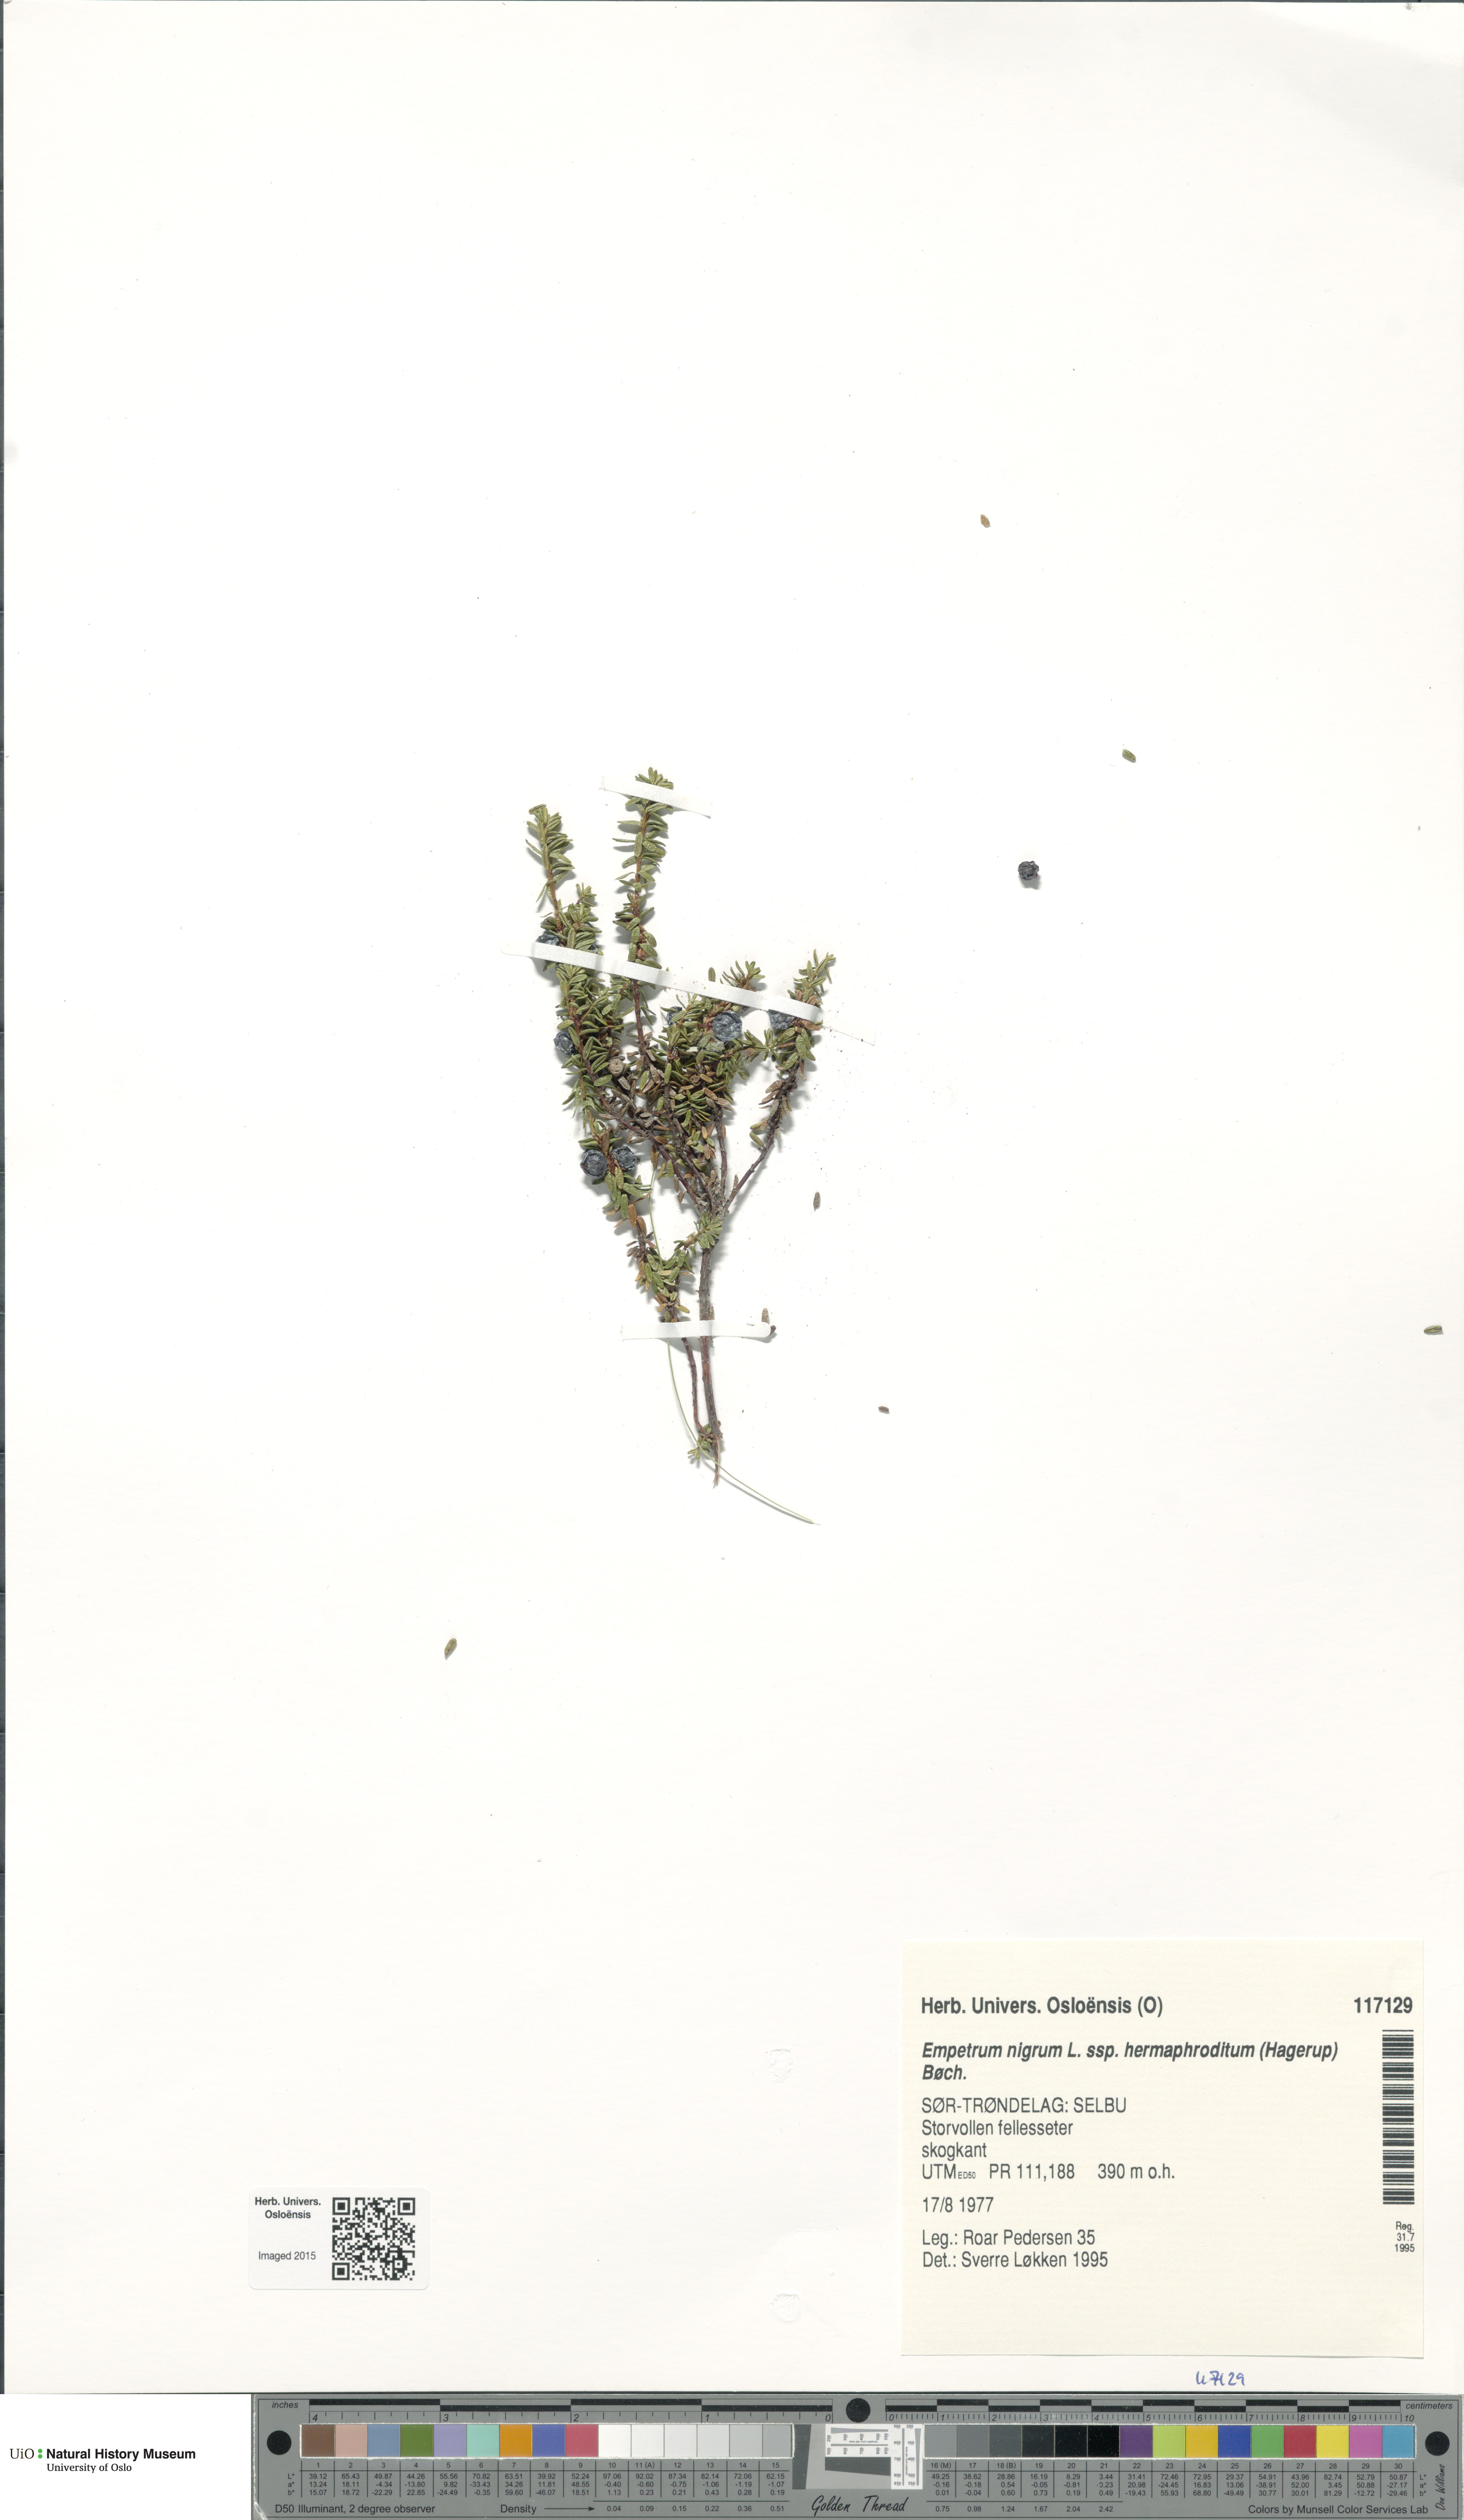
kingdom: Plantae
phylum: Tracheophyta
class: Magnoliopsida
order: Ericales
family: Ericaceae
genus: Empetrum
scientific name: Empetrum hermaphroditum
